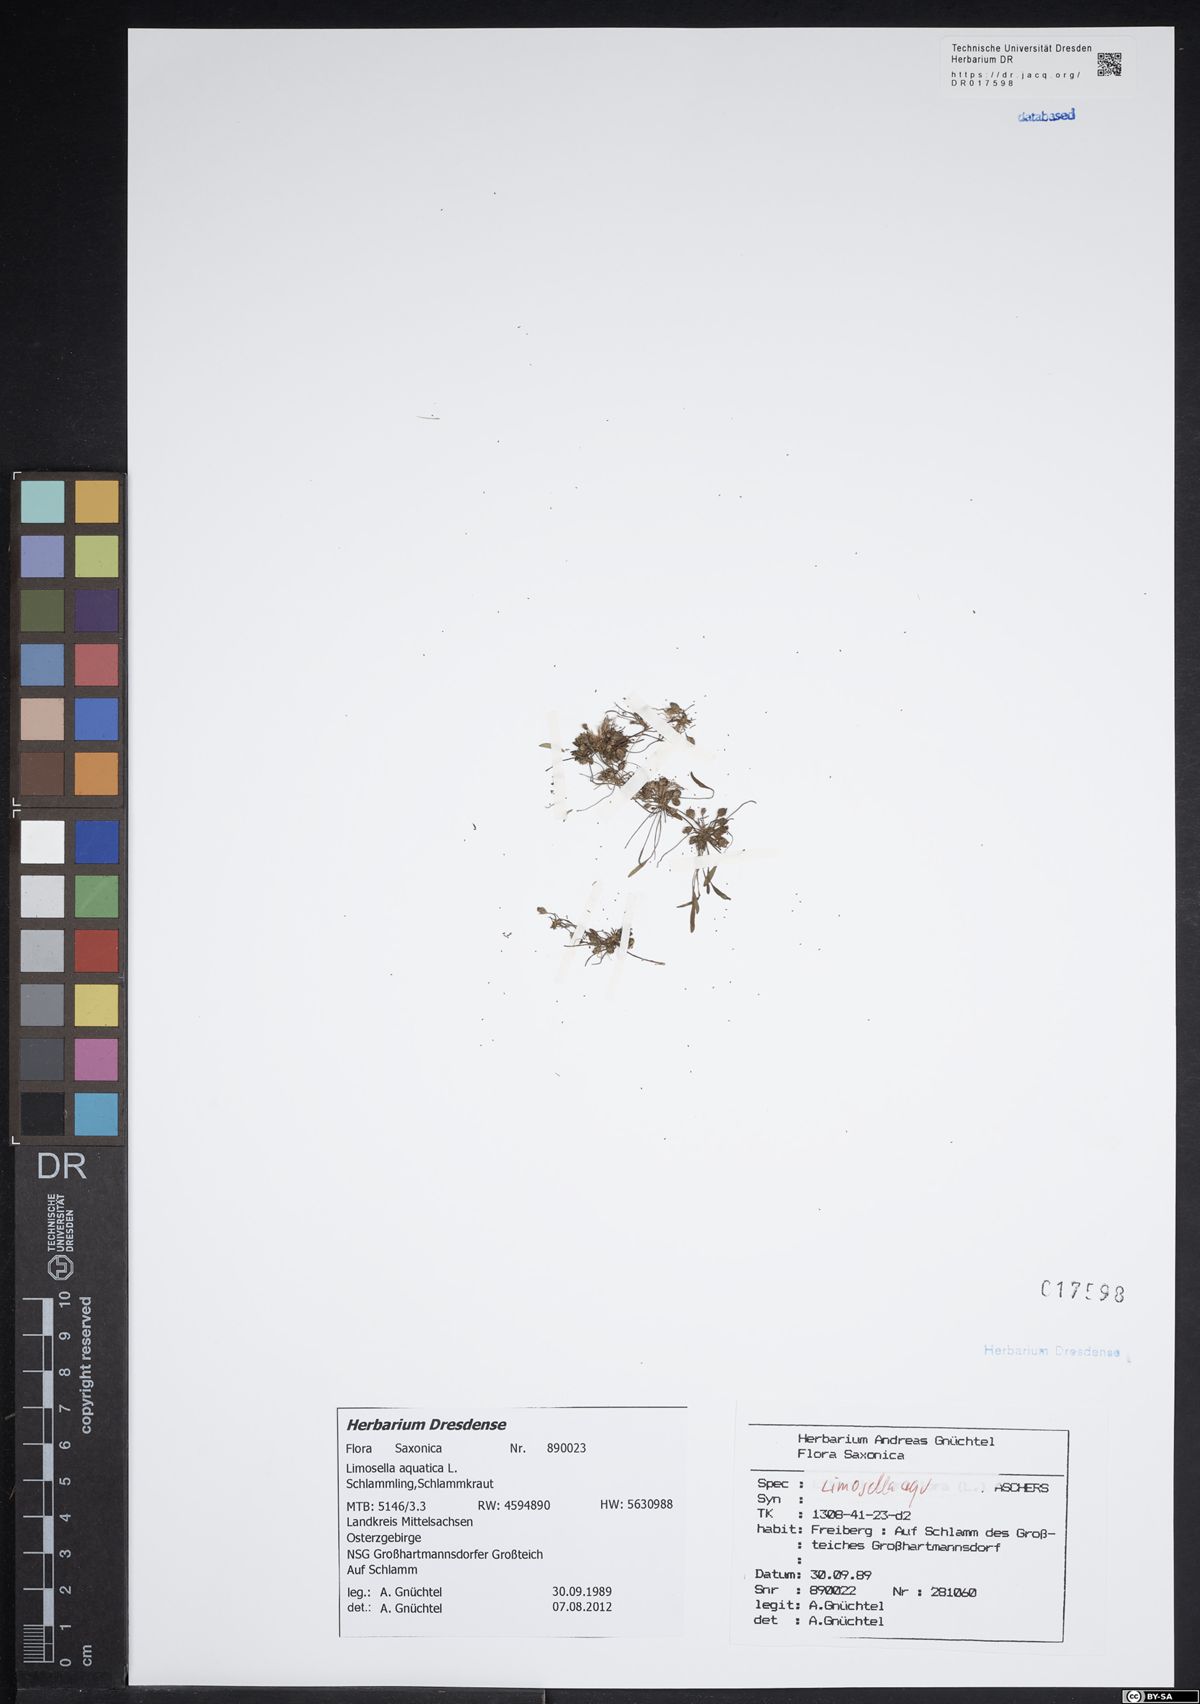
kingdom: Plantae
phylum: Tracheophyta
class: Magnoliopsida
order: Lamiales
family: Scrophulariaceae
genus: Limosella
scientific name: Limosella aquatica
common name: Mudwort
